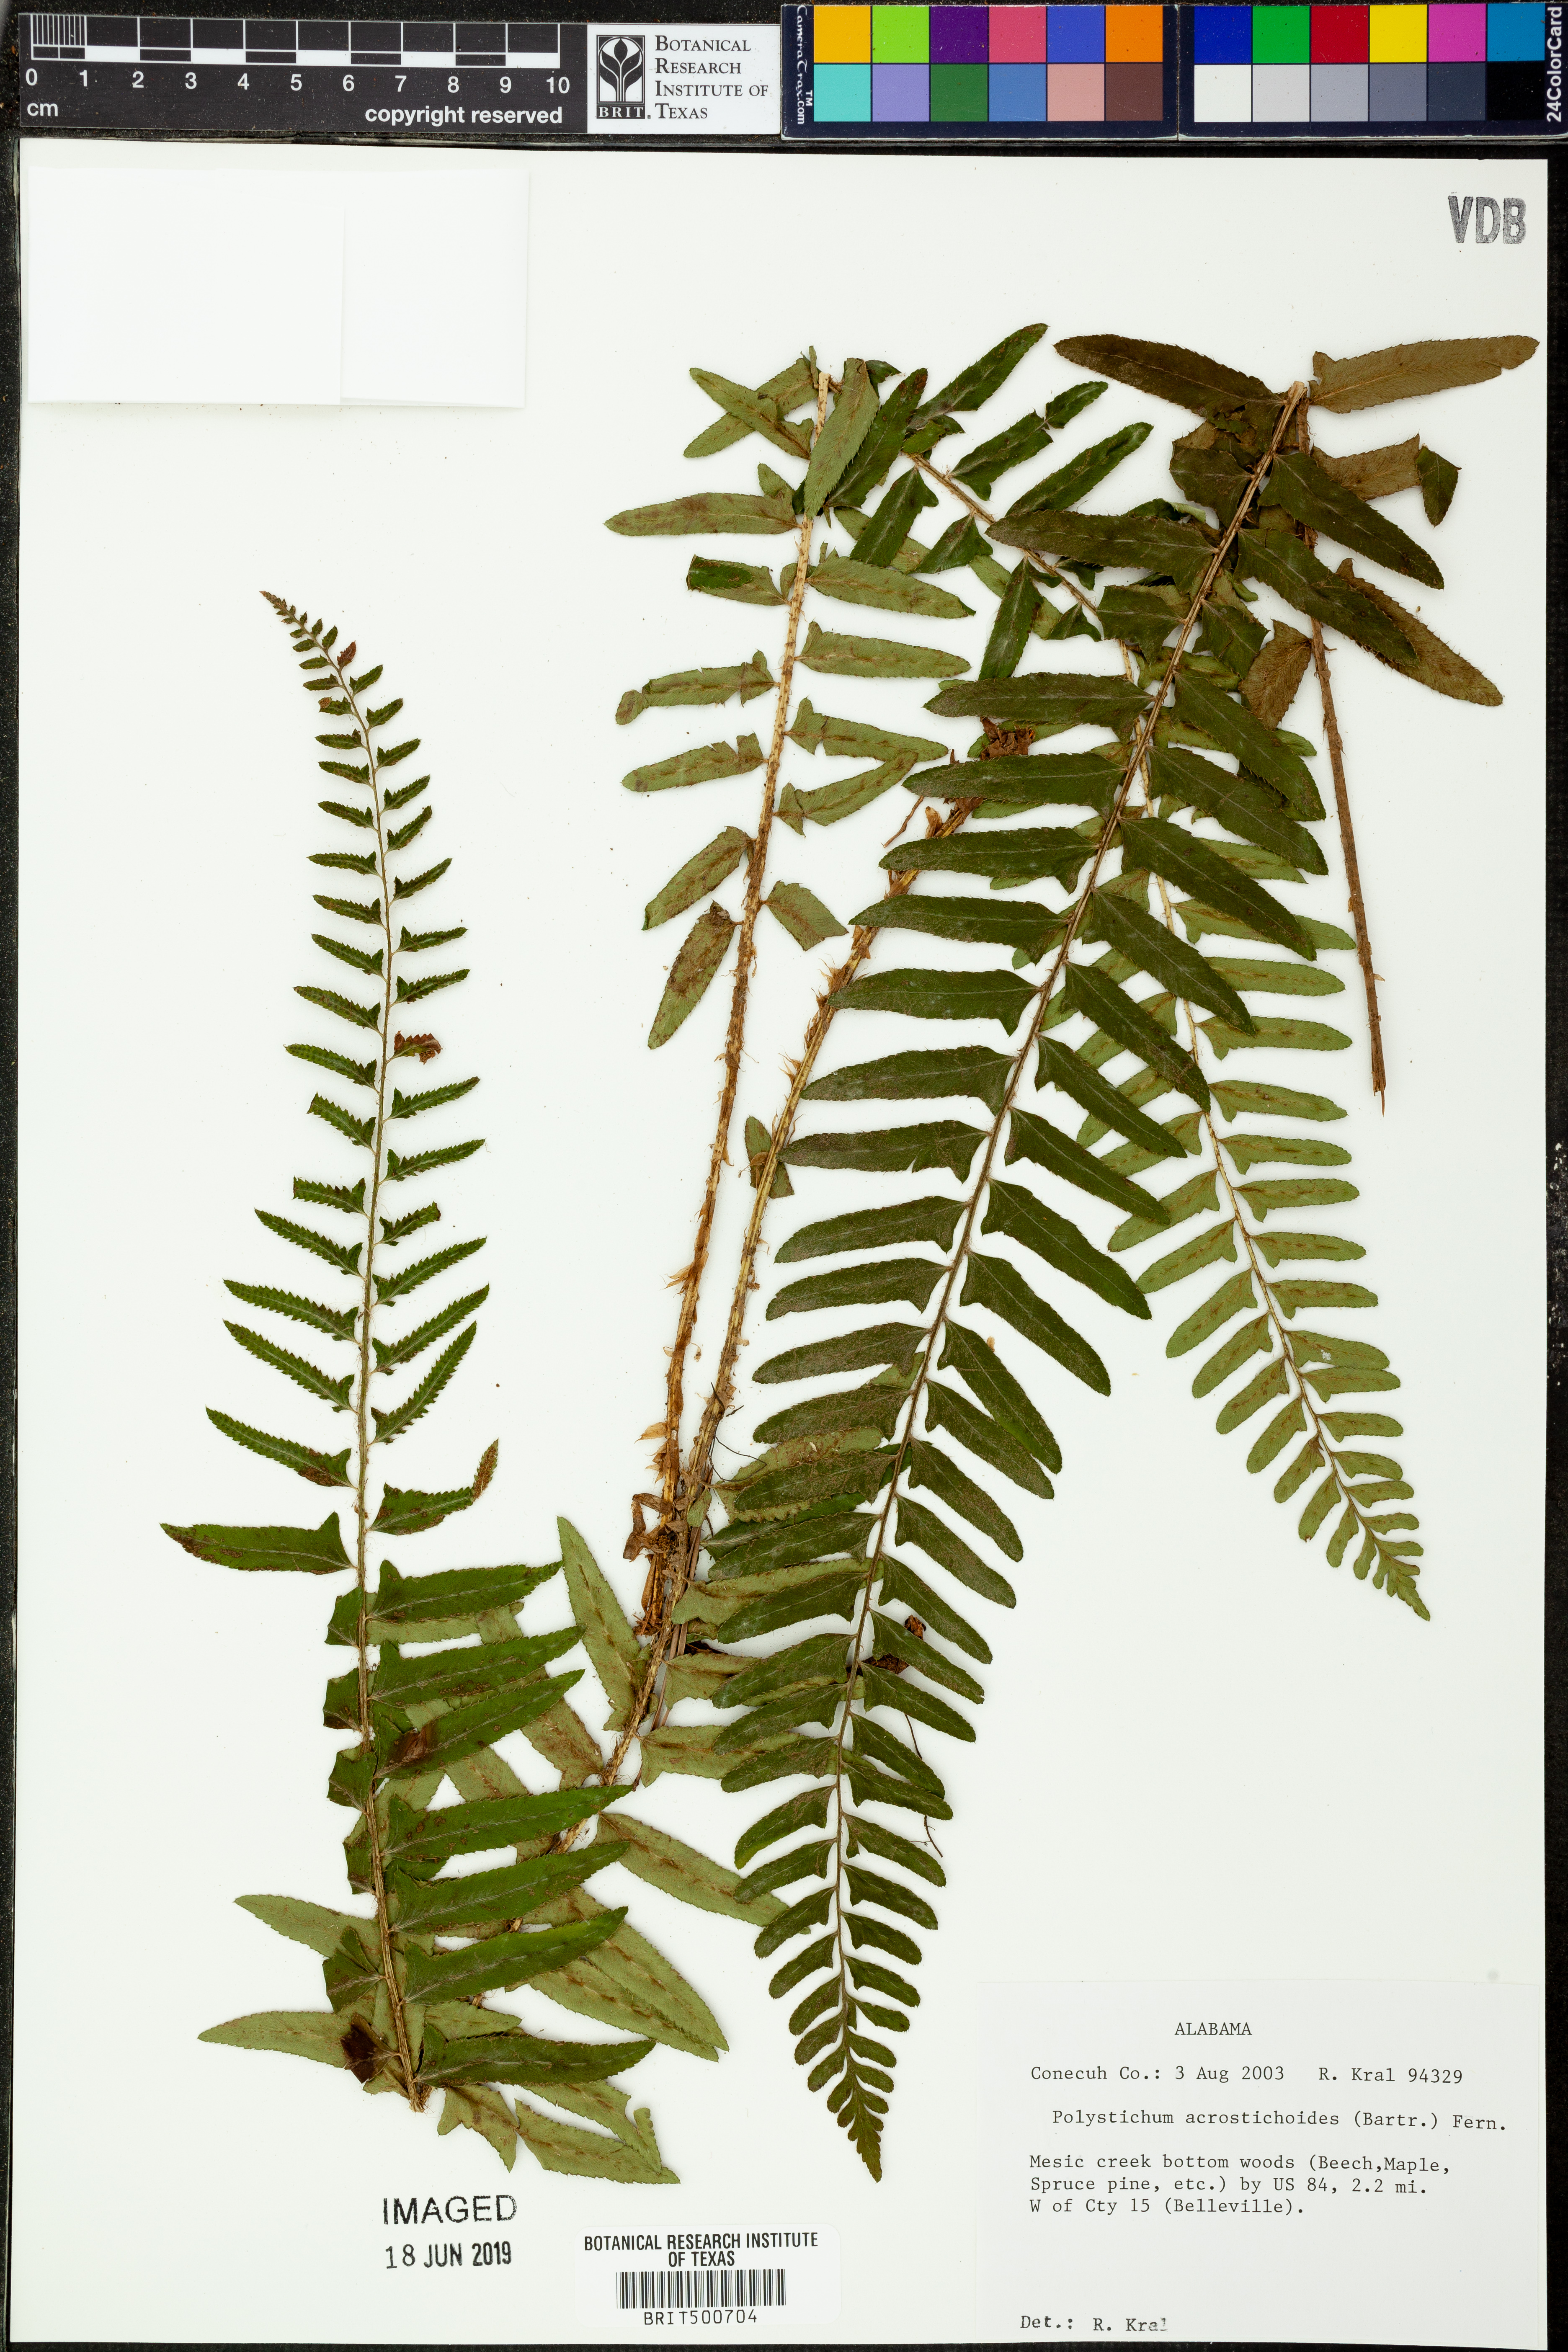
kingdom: Plantae
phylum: Tracheophyta
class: Polypodiopsida
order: Polypodiales
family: Dryopteridaceae
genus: Polystichum
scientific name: Polystichum acrostichoides
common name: Christmas fern
